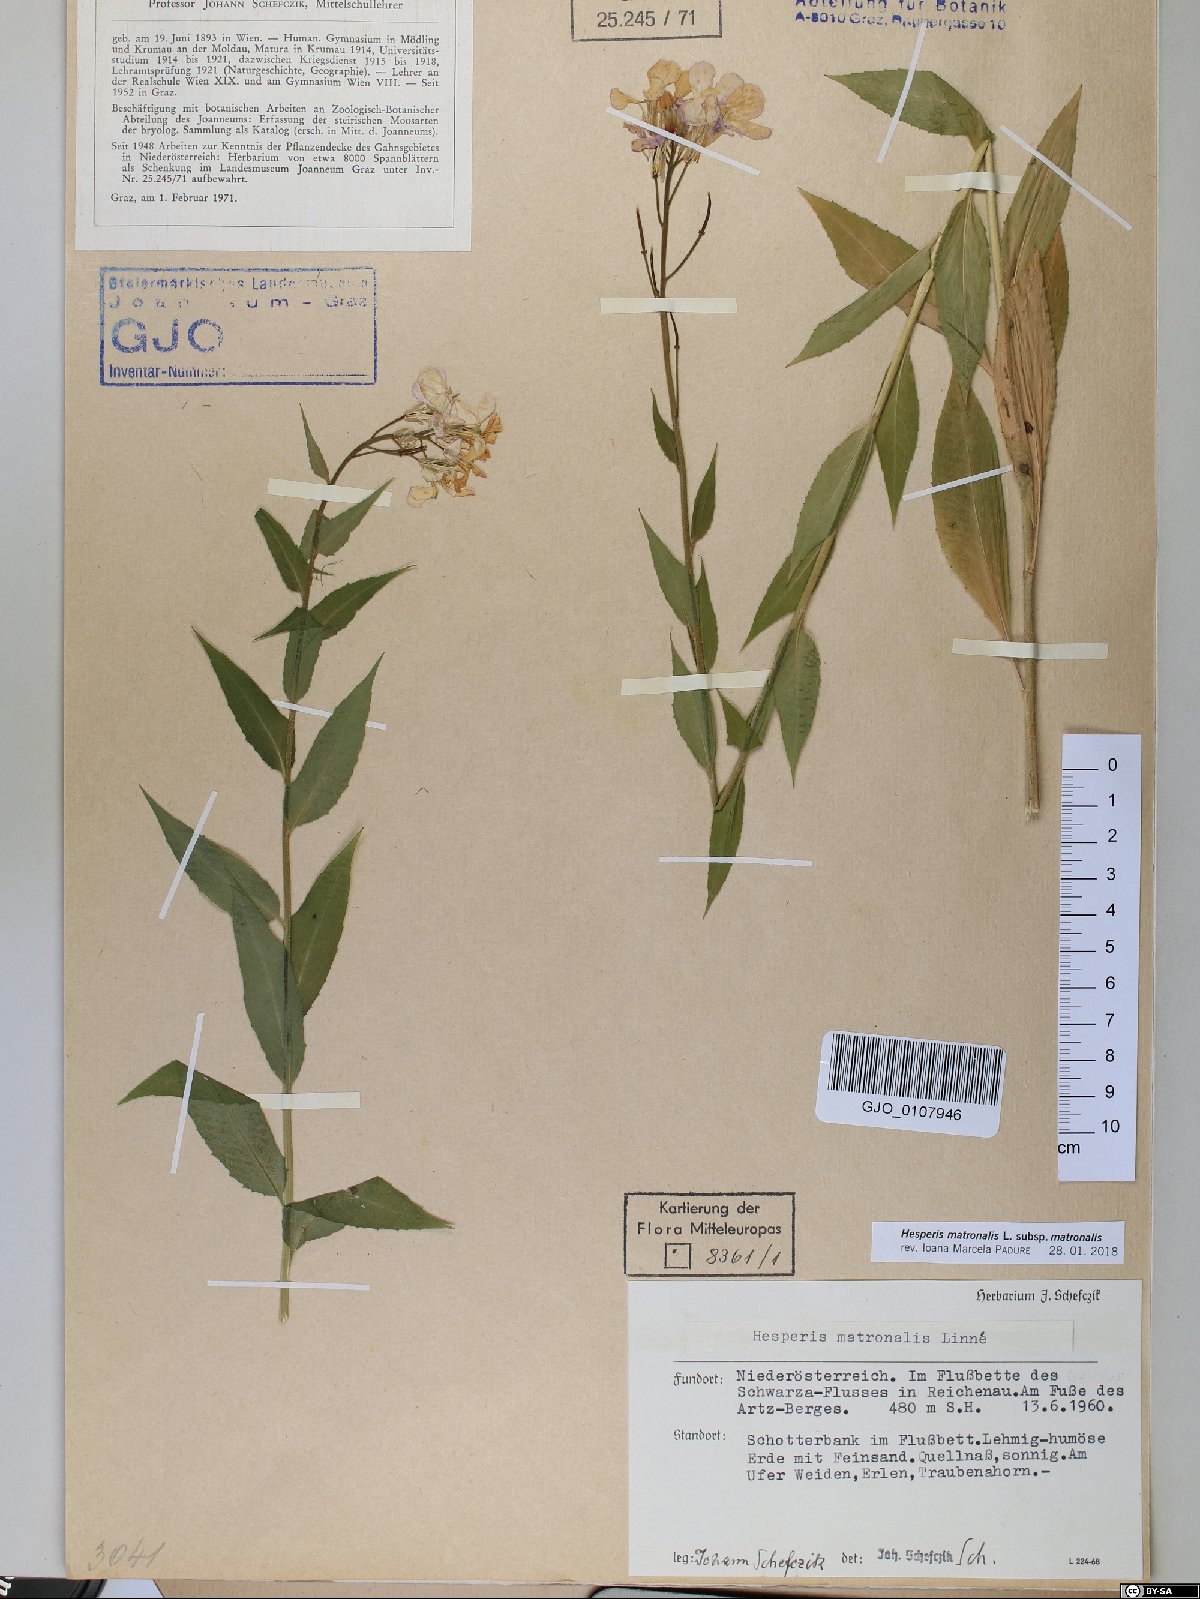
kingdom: Plantae
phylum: Tracheophyta
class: Magnoliopsida
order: Brassicales
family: Brassicaceae
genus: Hesperis
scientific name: Hesperis matronalis
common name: Dame's-violet
